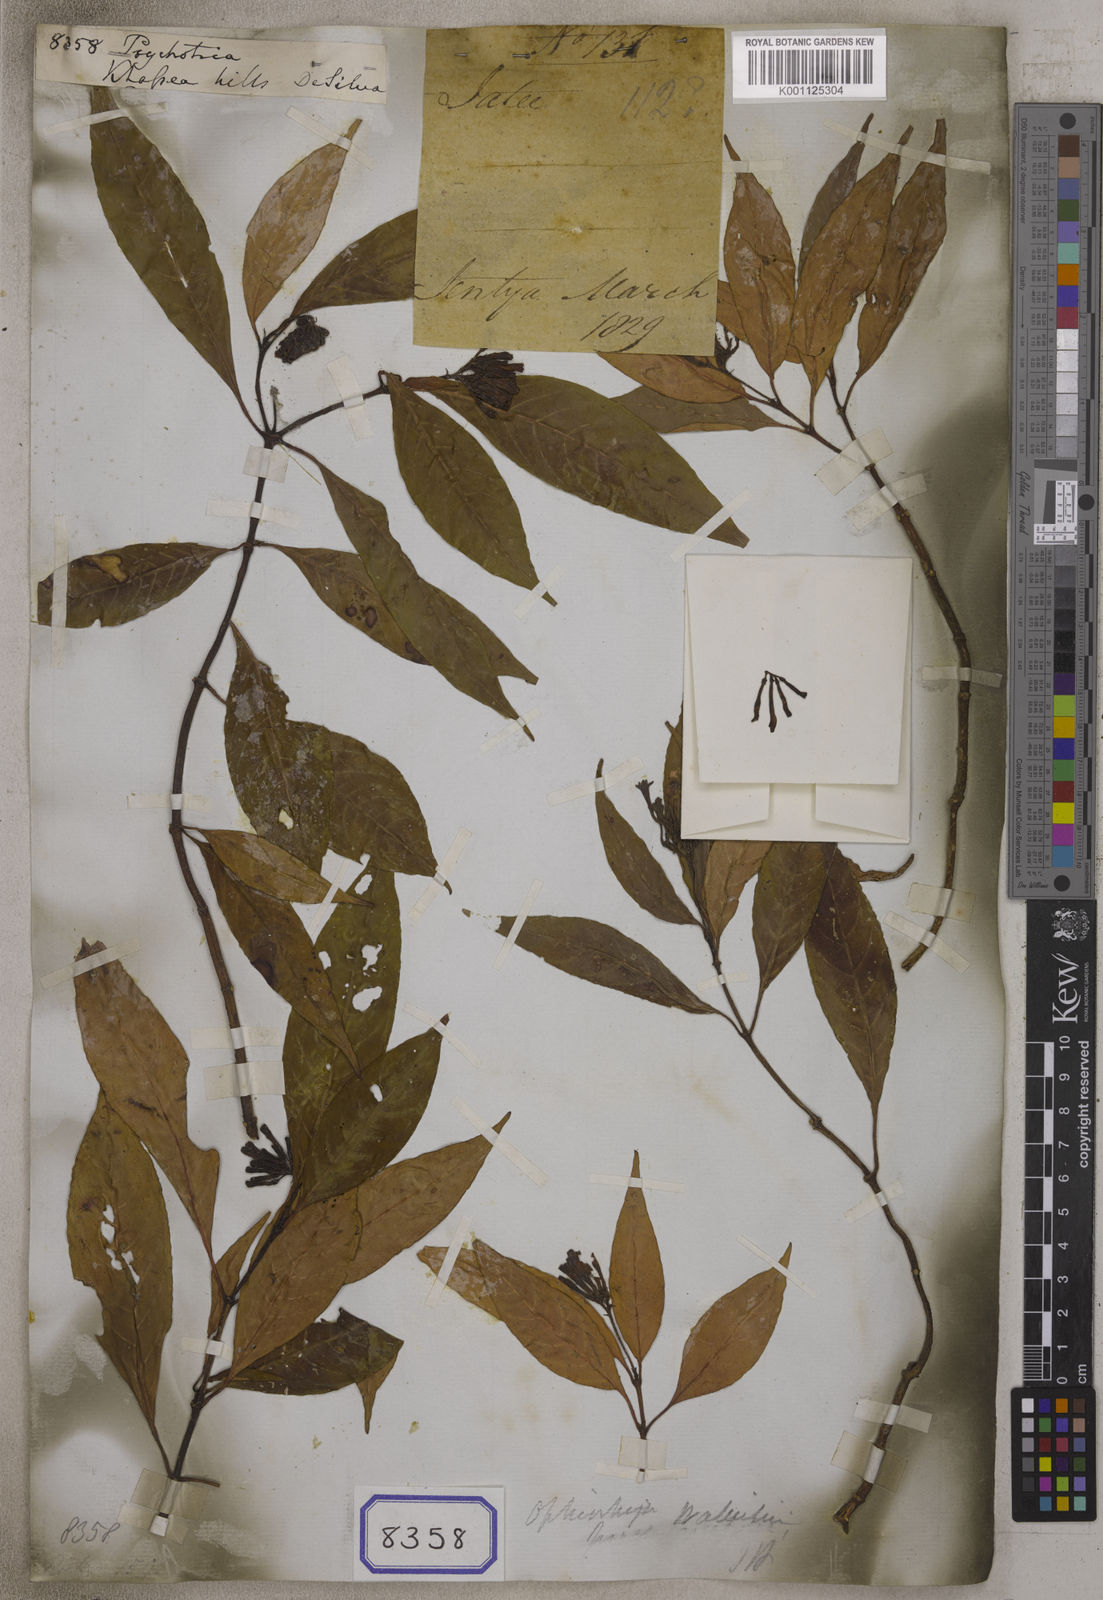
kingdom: Plantae
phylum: Tracheophyta
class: Magnoliopsida
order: Gentianales
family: Rubiaceae
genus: Psychotria
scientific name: Psychotria
